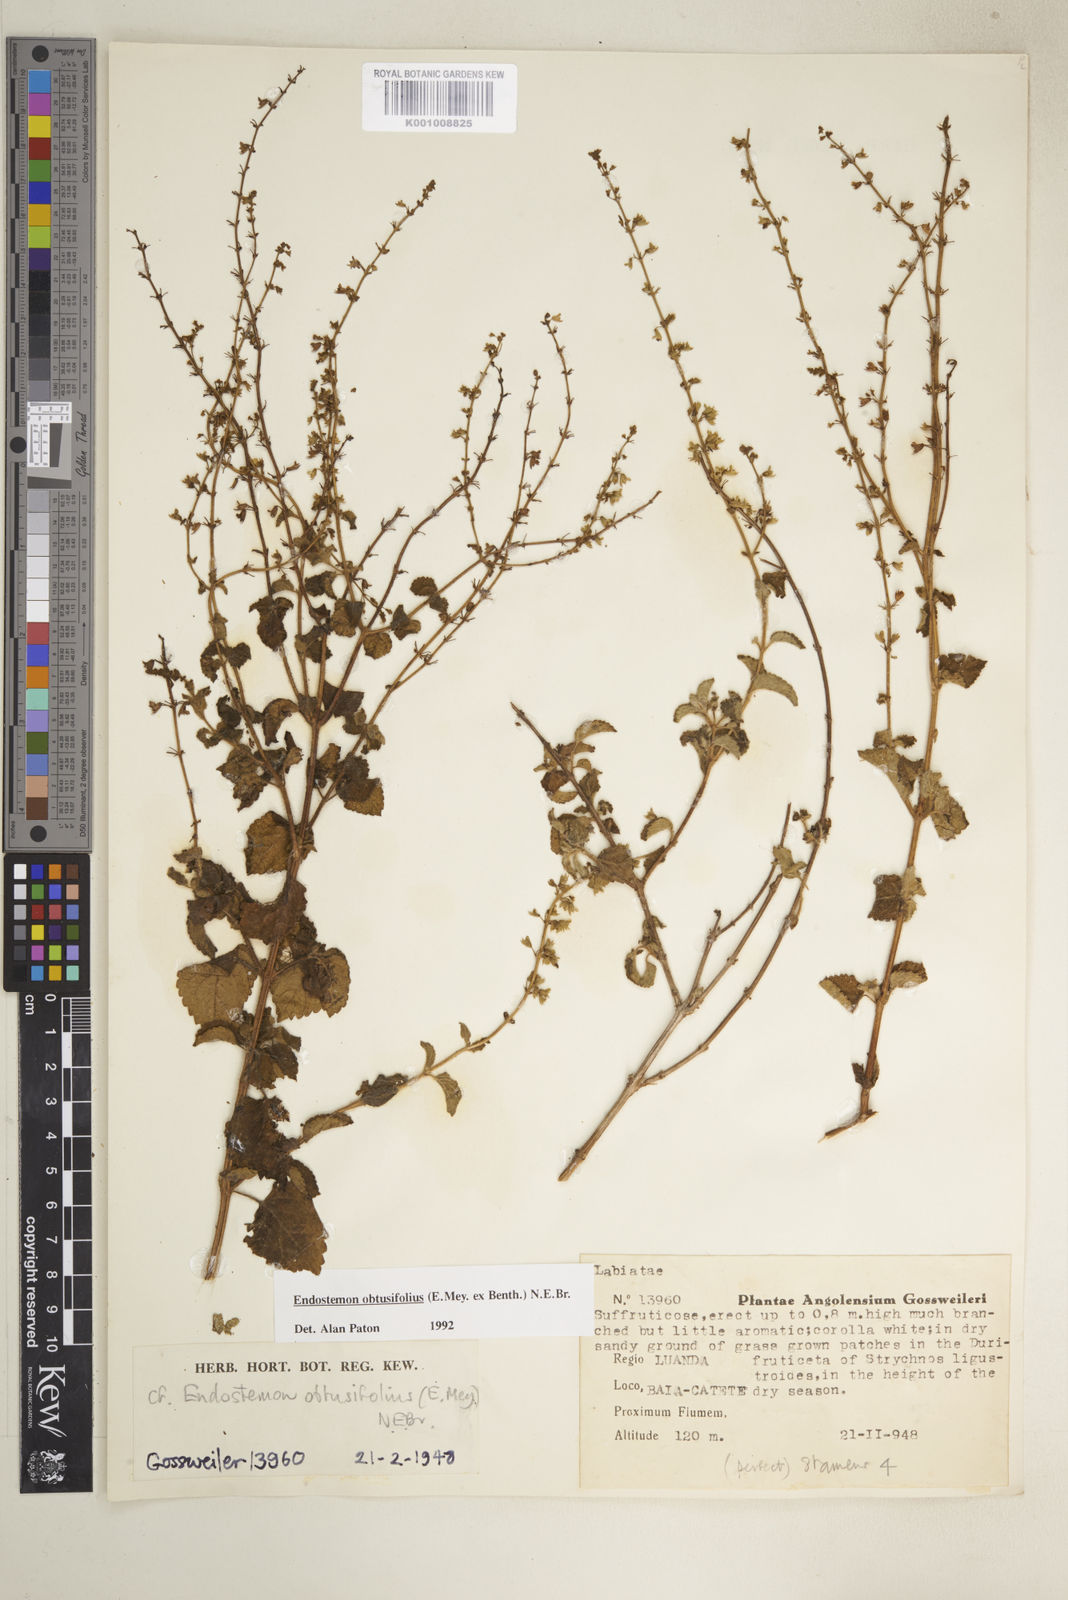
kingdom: Plantae
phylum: Tracheophyta
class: Magnoliopsida
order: Lamiales
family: Lamiaceae
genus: Endostemon
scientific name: Endostemon obtusifolius
